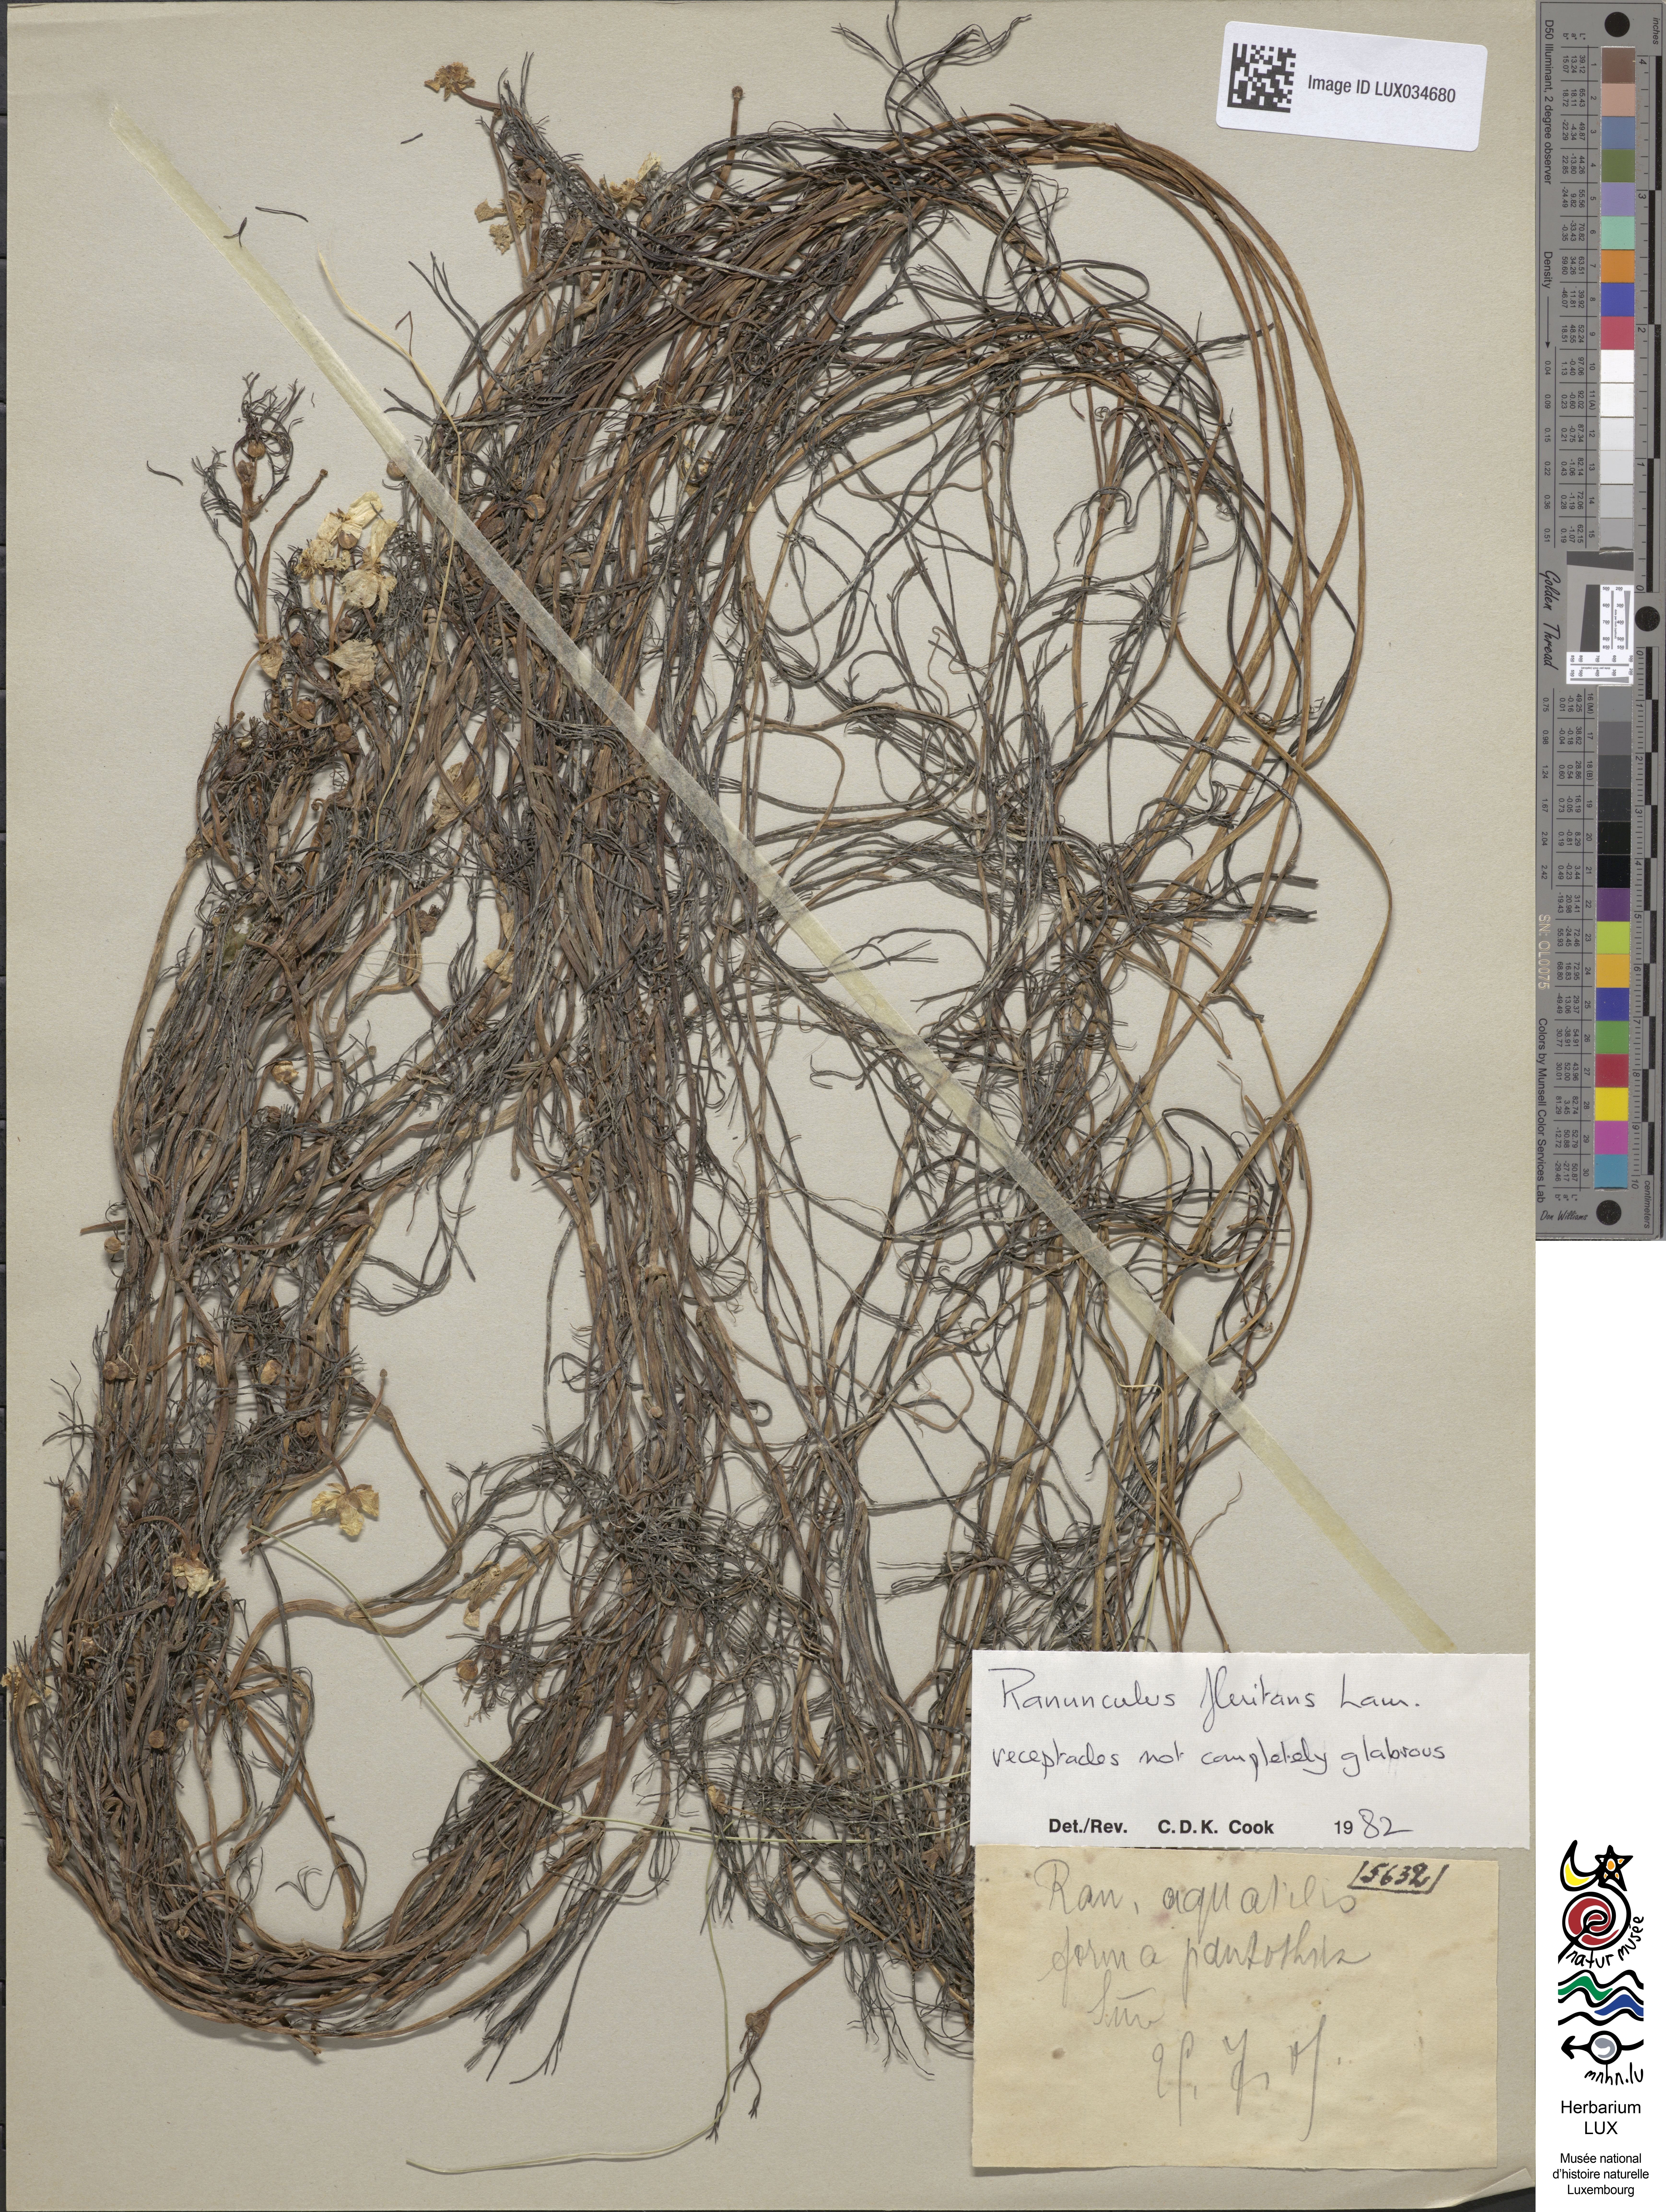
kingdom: Plantae
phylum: Tracheophyta
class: Magnoliopsida
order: Ranunculales
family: Ranunculaceae
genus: Ranunculus
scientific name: Ranunculus aquatilis
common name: Common water-crowfoot
